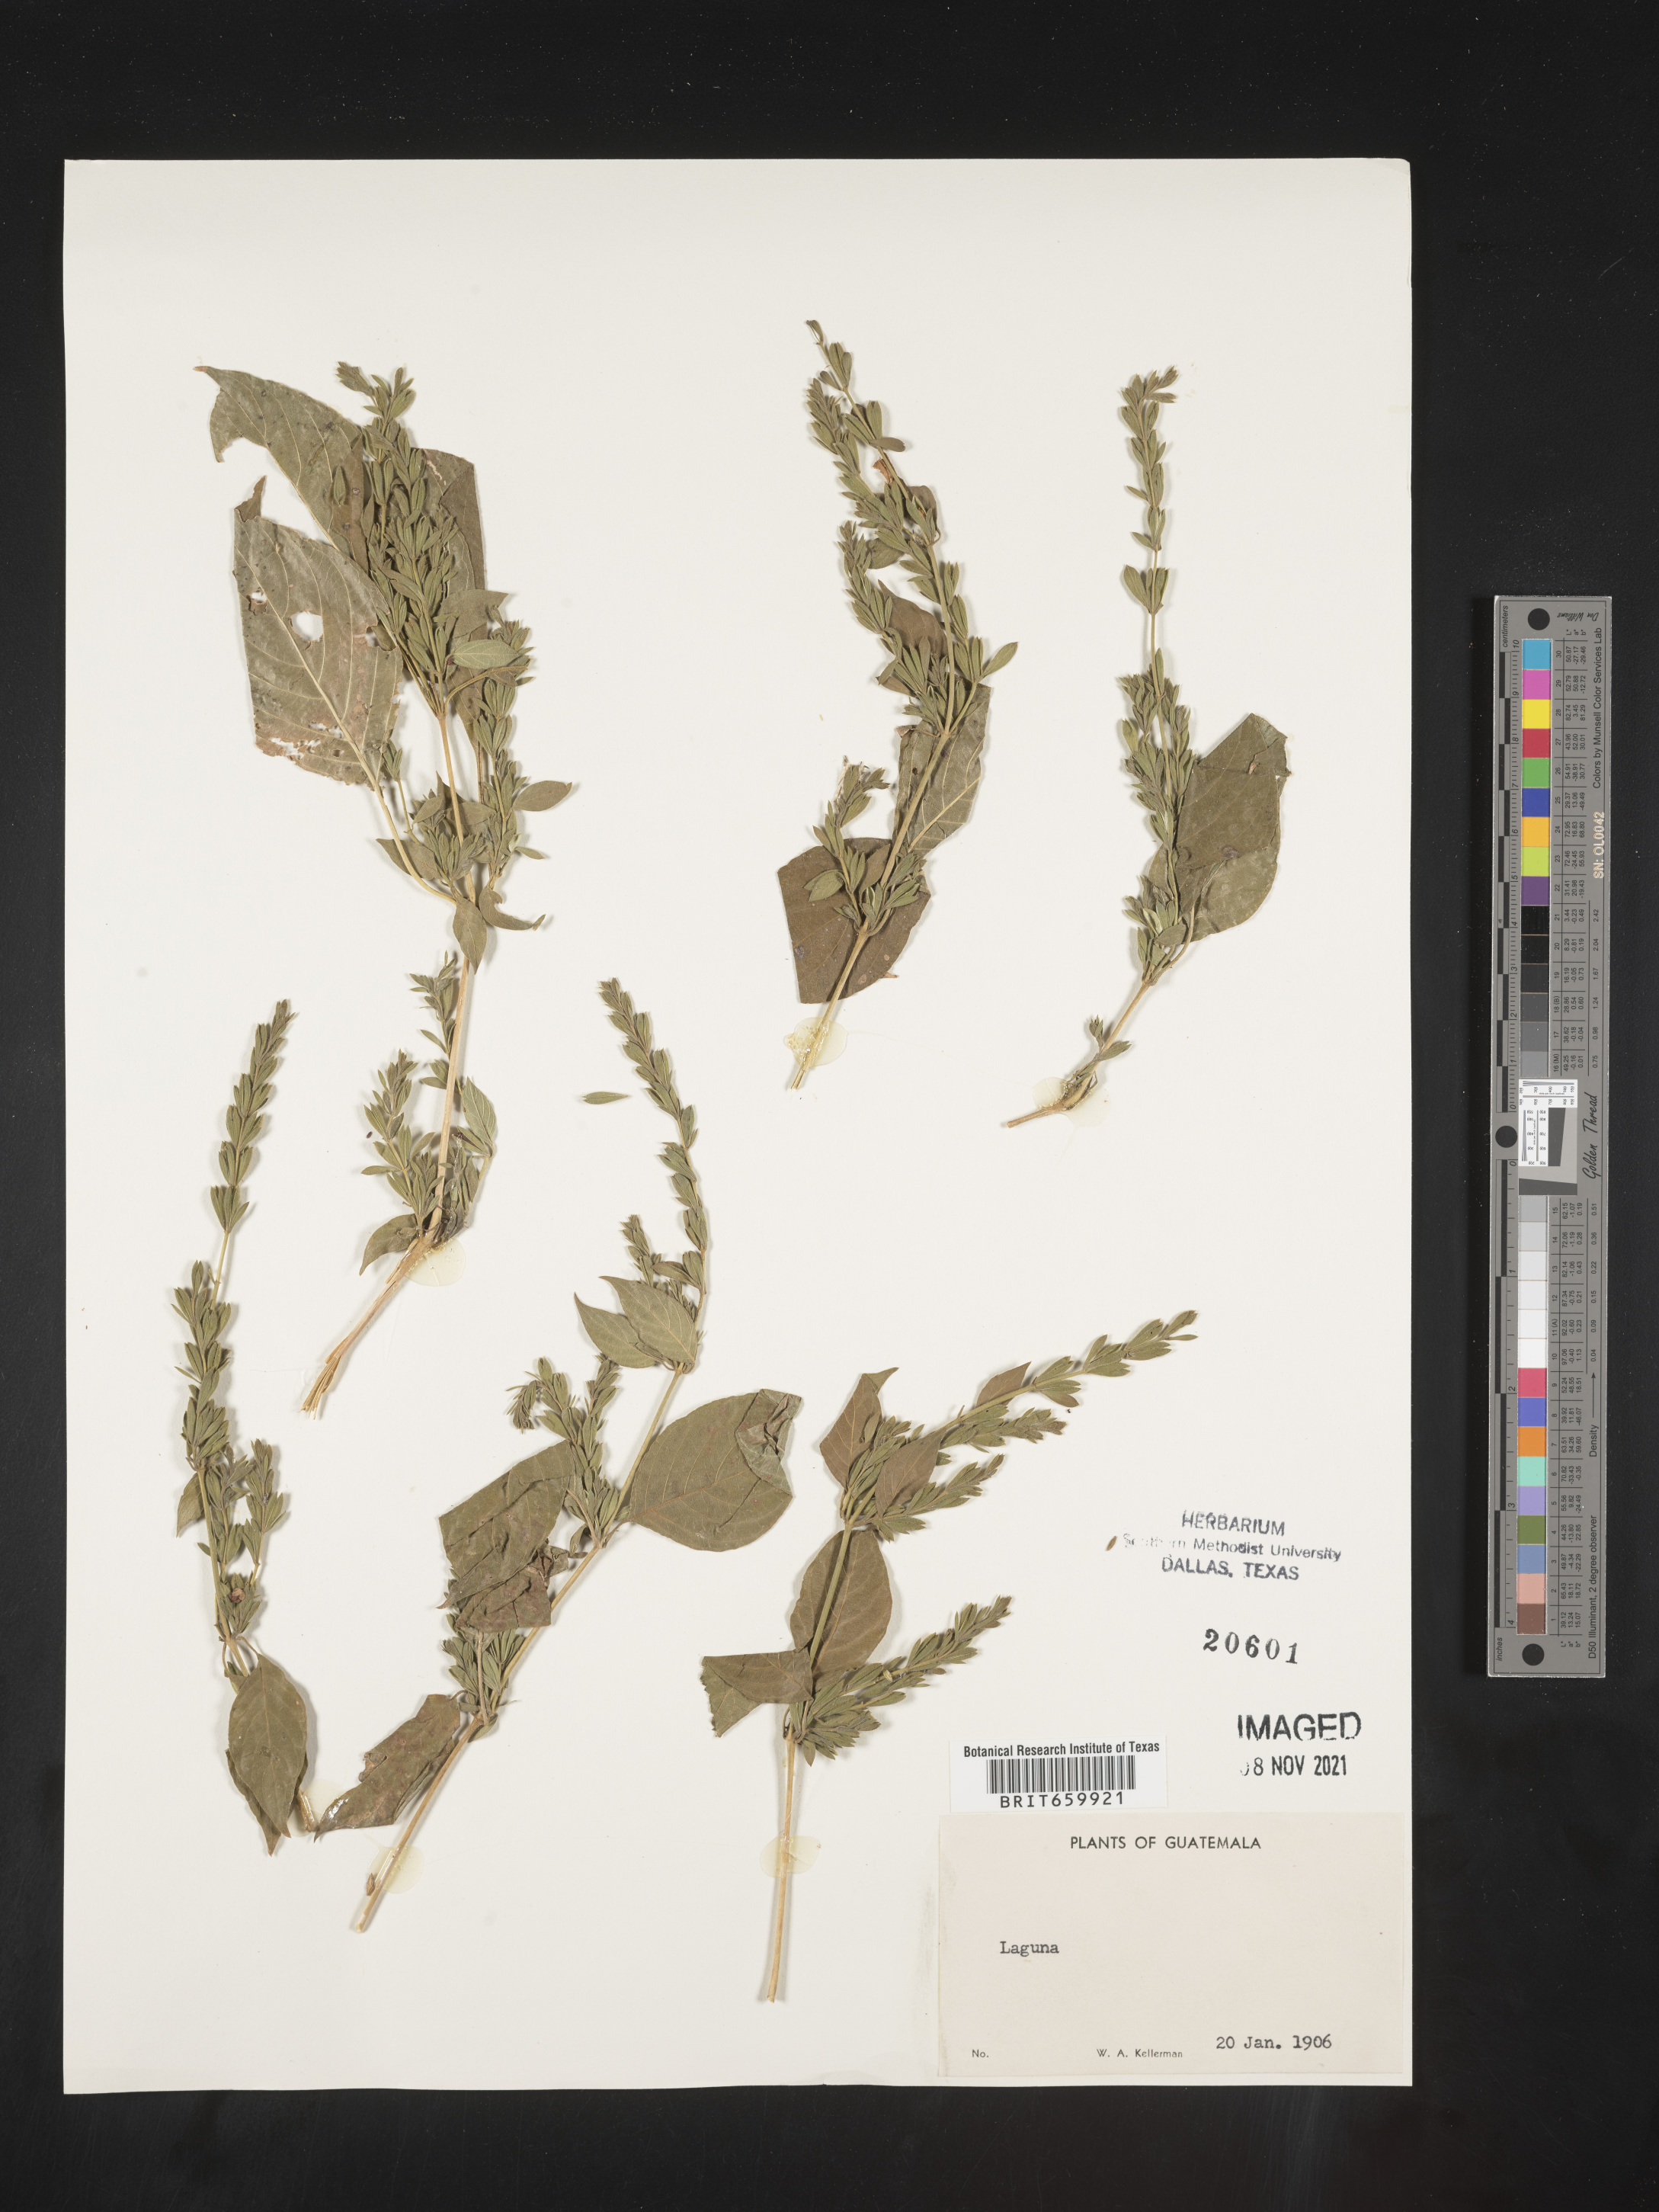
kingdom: Plantae
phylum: Tracheophyta
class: Magnoliopsida
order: Lamiales
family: Acanthaceae
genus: Henrya
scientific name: Henrya
